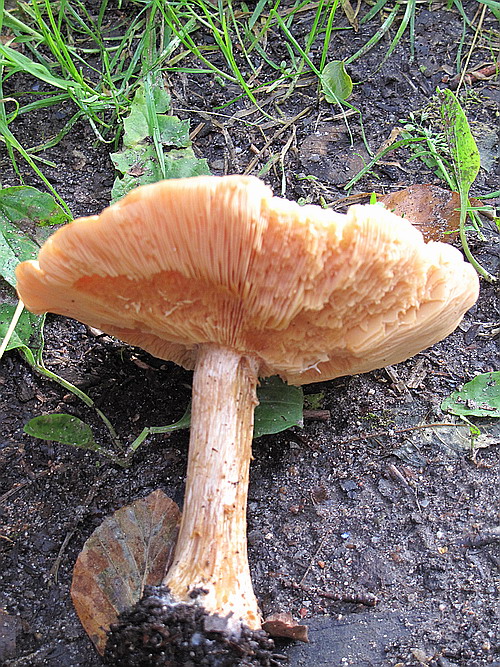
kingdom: Fungi
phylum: Basidiomycota
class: Agaricomycetes
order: Agaricales
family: Tricholomataceae
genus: Melanoleuca
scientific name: Melanoleuca cognata
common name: gyldengrå munkehat
